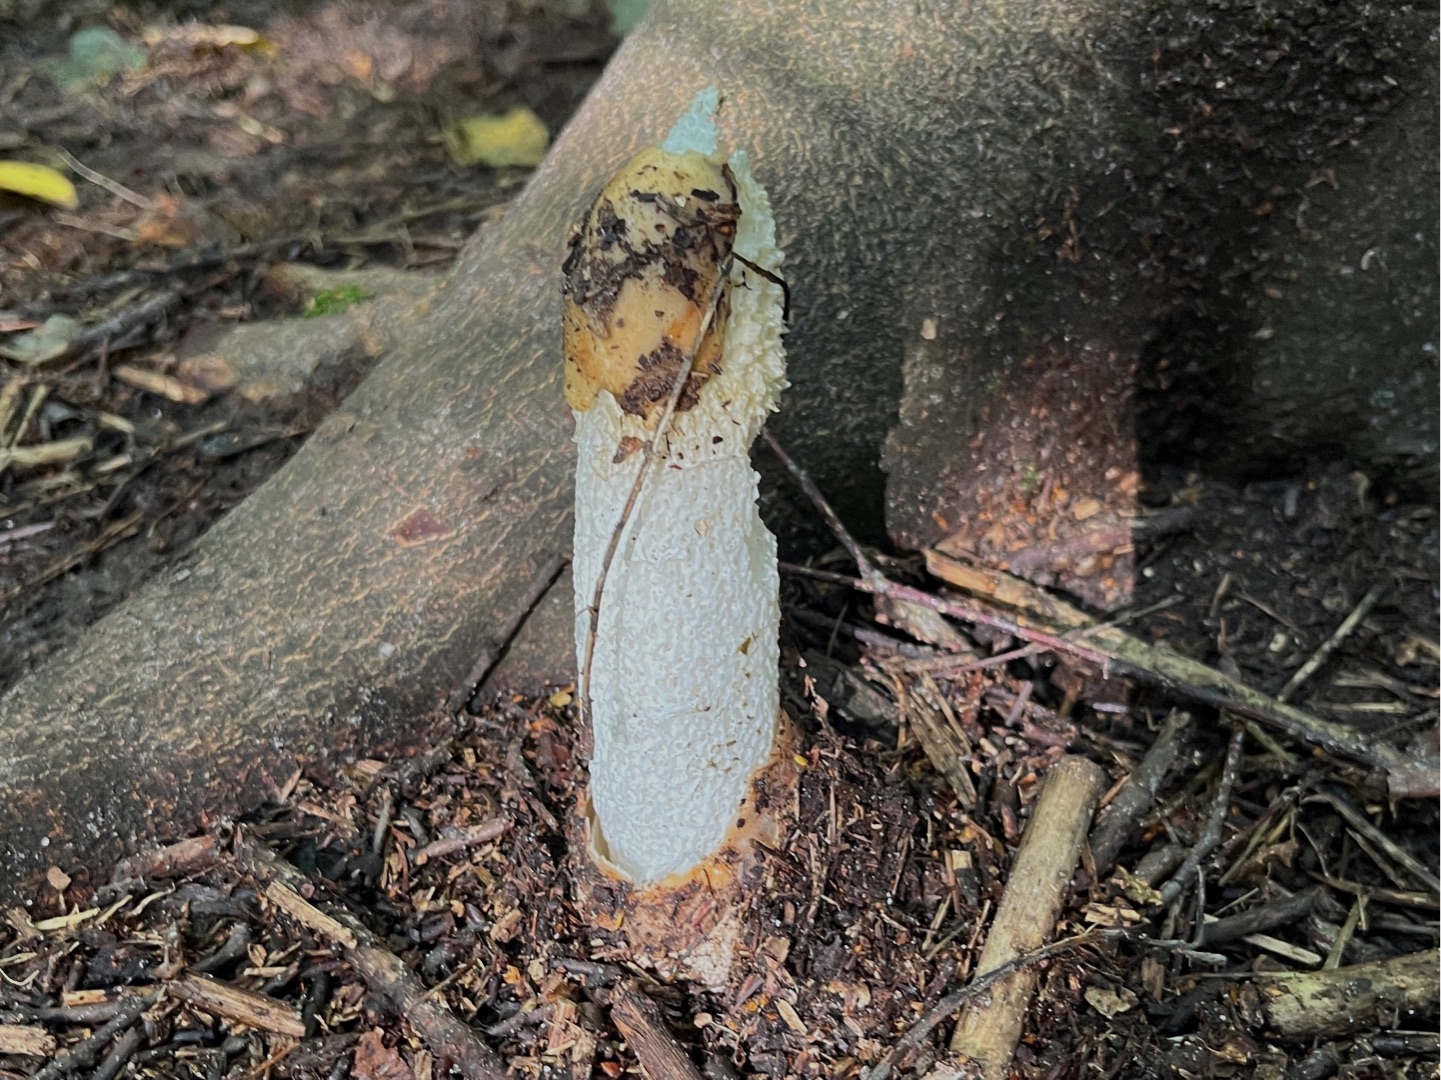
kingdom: Fungi
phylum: Basidiomycota
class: Agaricomycetes
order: Phallales
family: Phallaceae
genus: Phallus
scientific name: Phallus impudicus
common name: Almindelig stinksvamp
